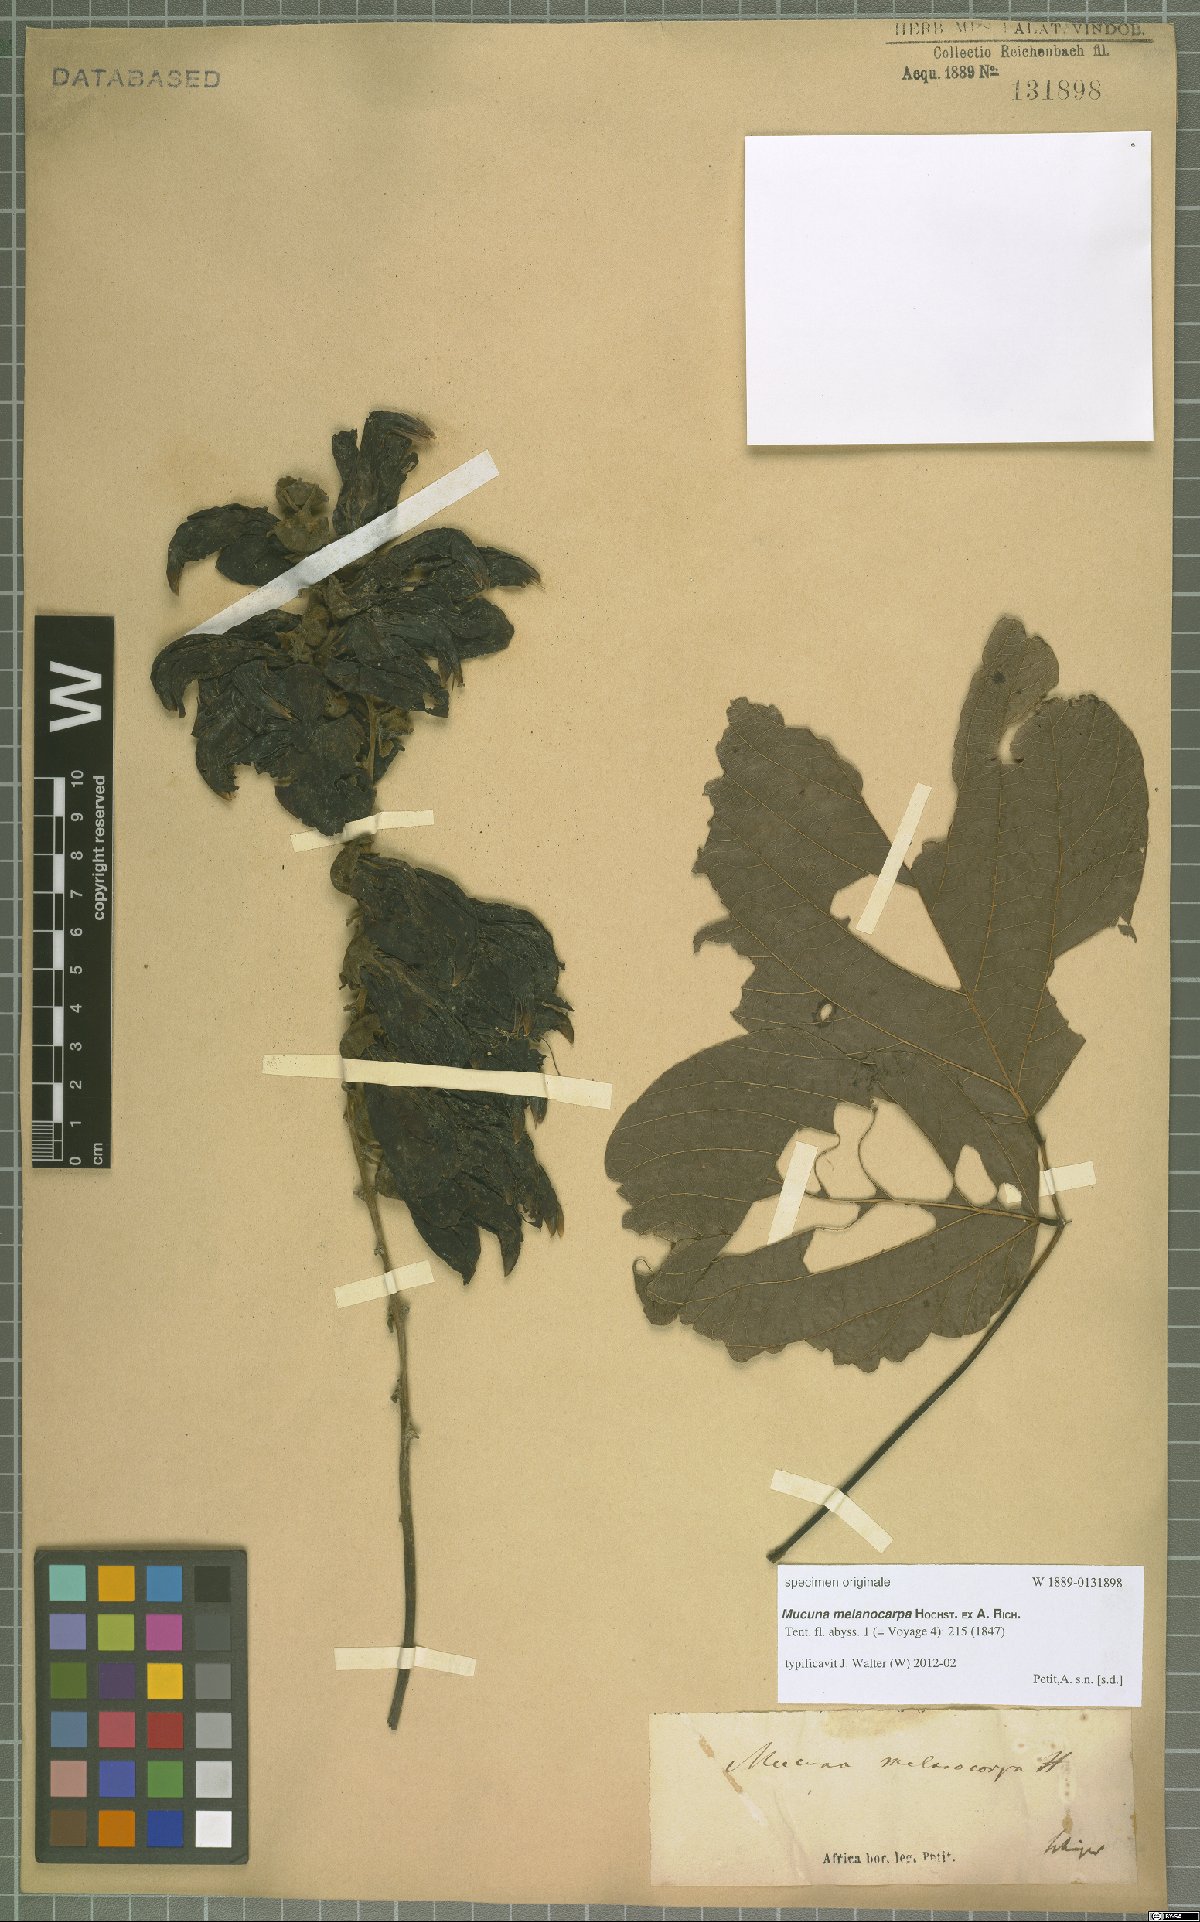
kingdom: Plantae
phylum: Tracheophyta
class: Magnoliopsida
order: Fabales
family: Fabaceae
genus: Mucuna
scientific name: Mucuna melanocarpa
